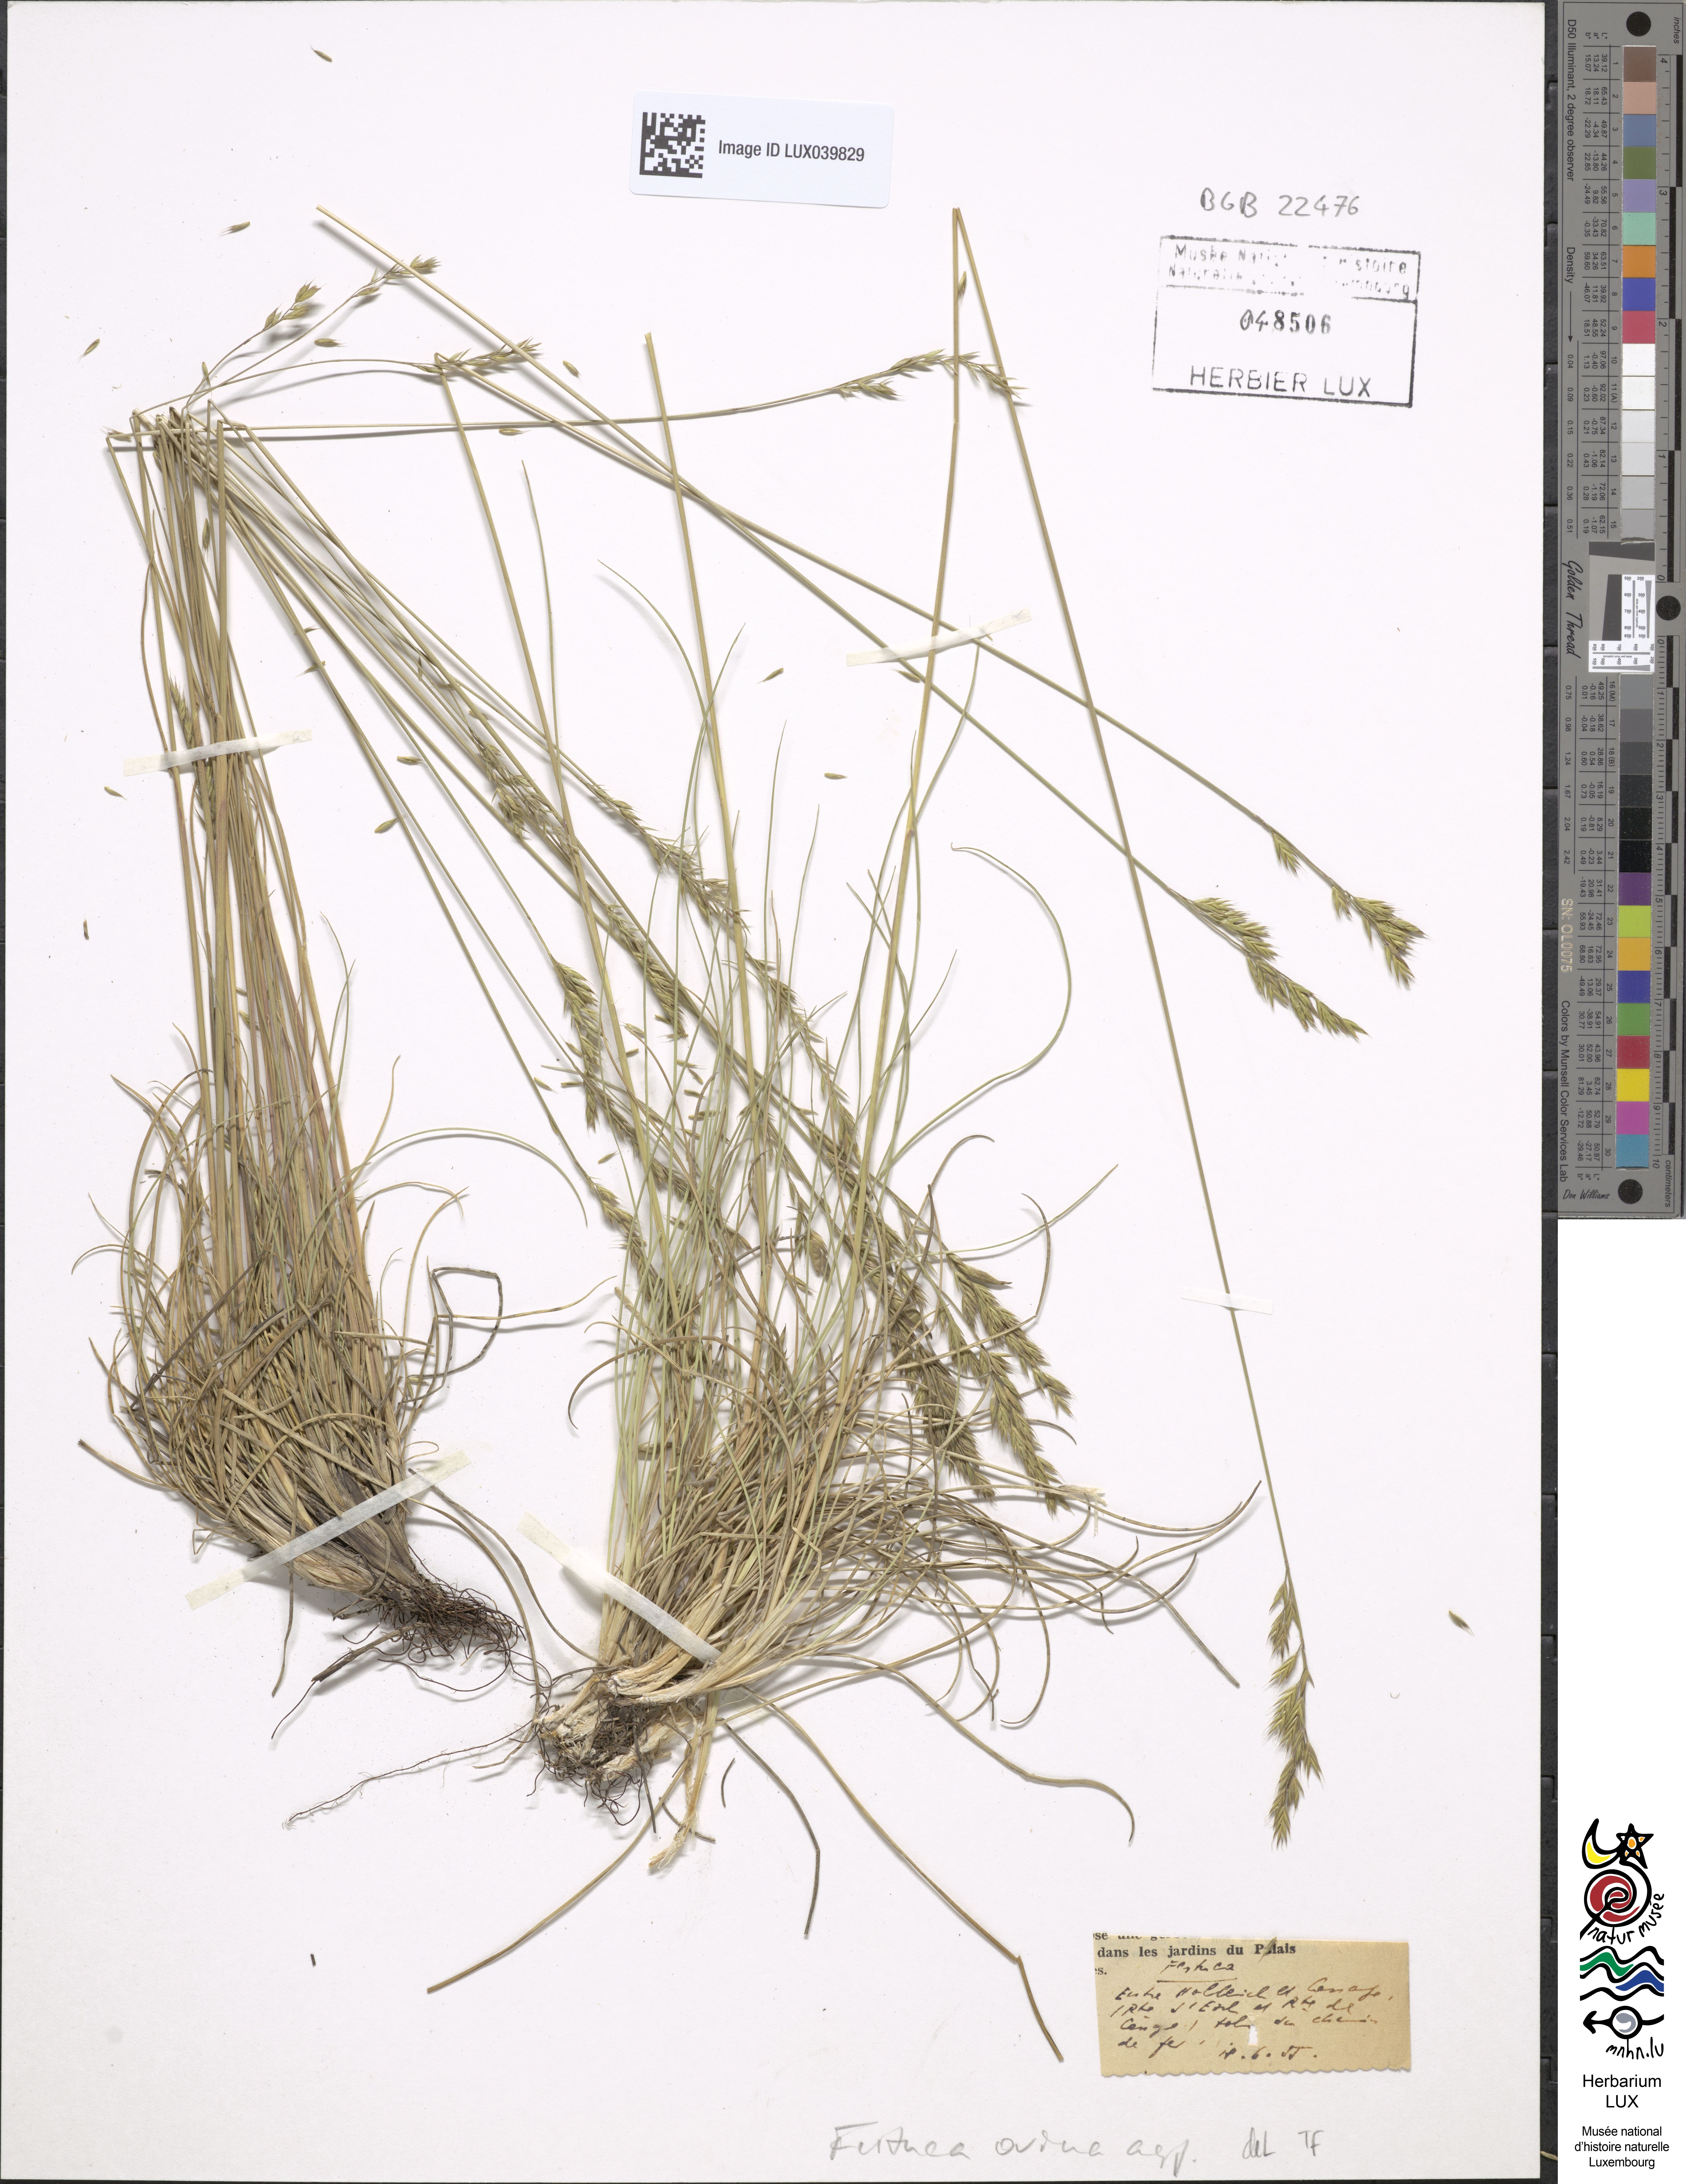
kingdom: Plantae
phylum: Tracheophyta
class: Liliopsida
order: Poales
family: Poaceae
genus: Festuca
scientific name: Festuca
